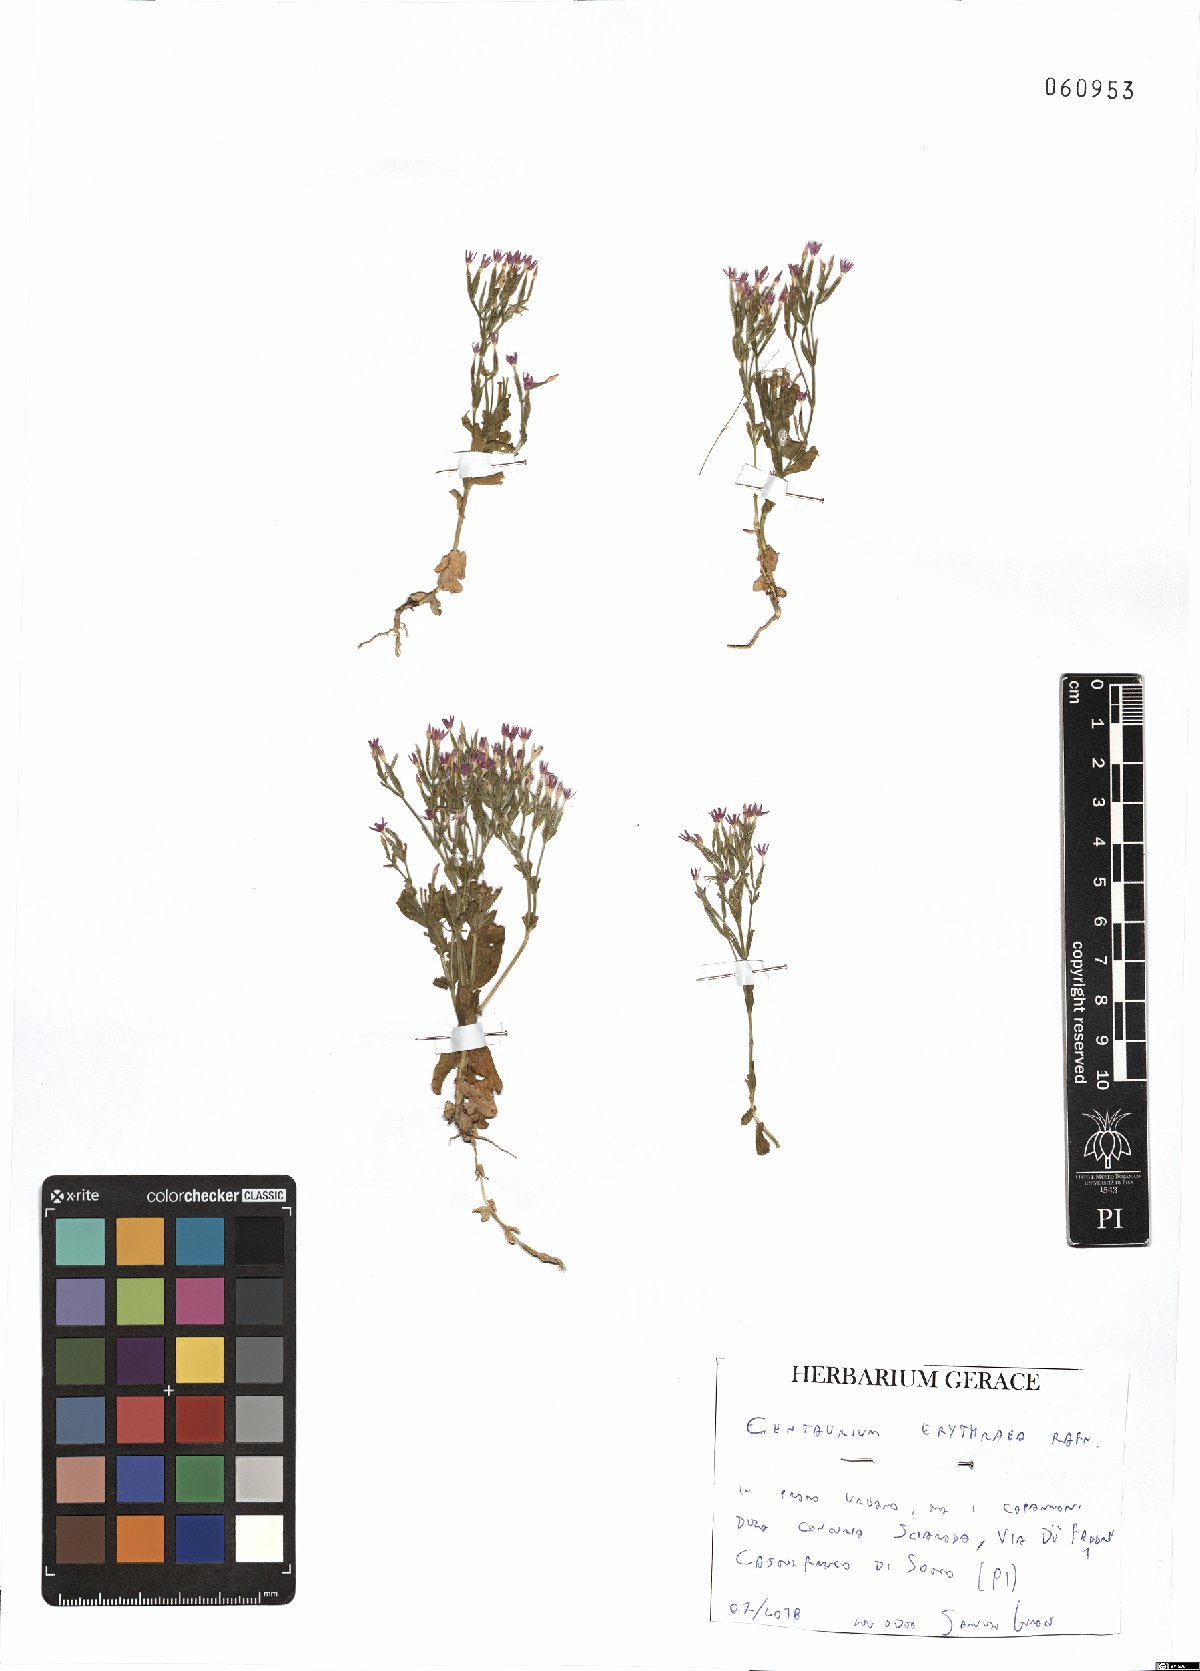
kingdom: Plantae
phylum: Tracheophyta
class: Magnoliopsida
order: Gentianales
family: Gentianaceae
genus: Centaurium
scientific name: Centaurium erythraea
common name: Common centaury
